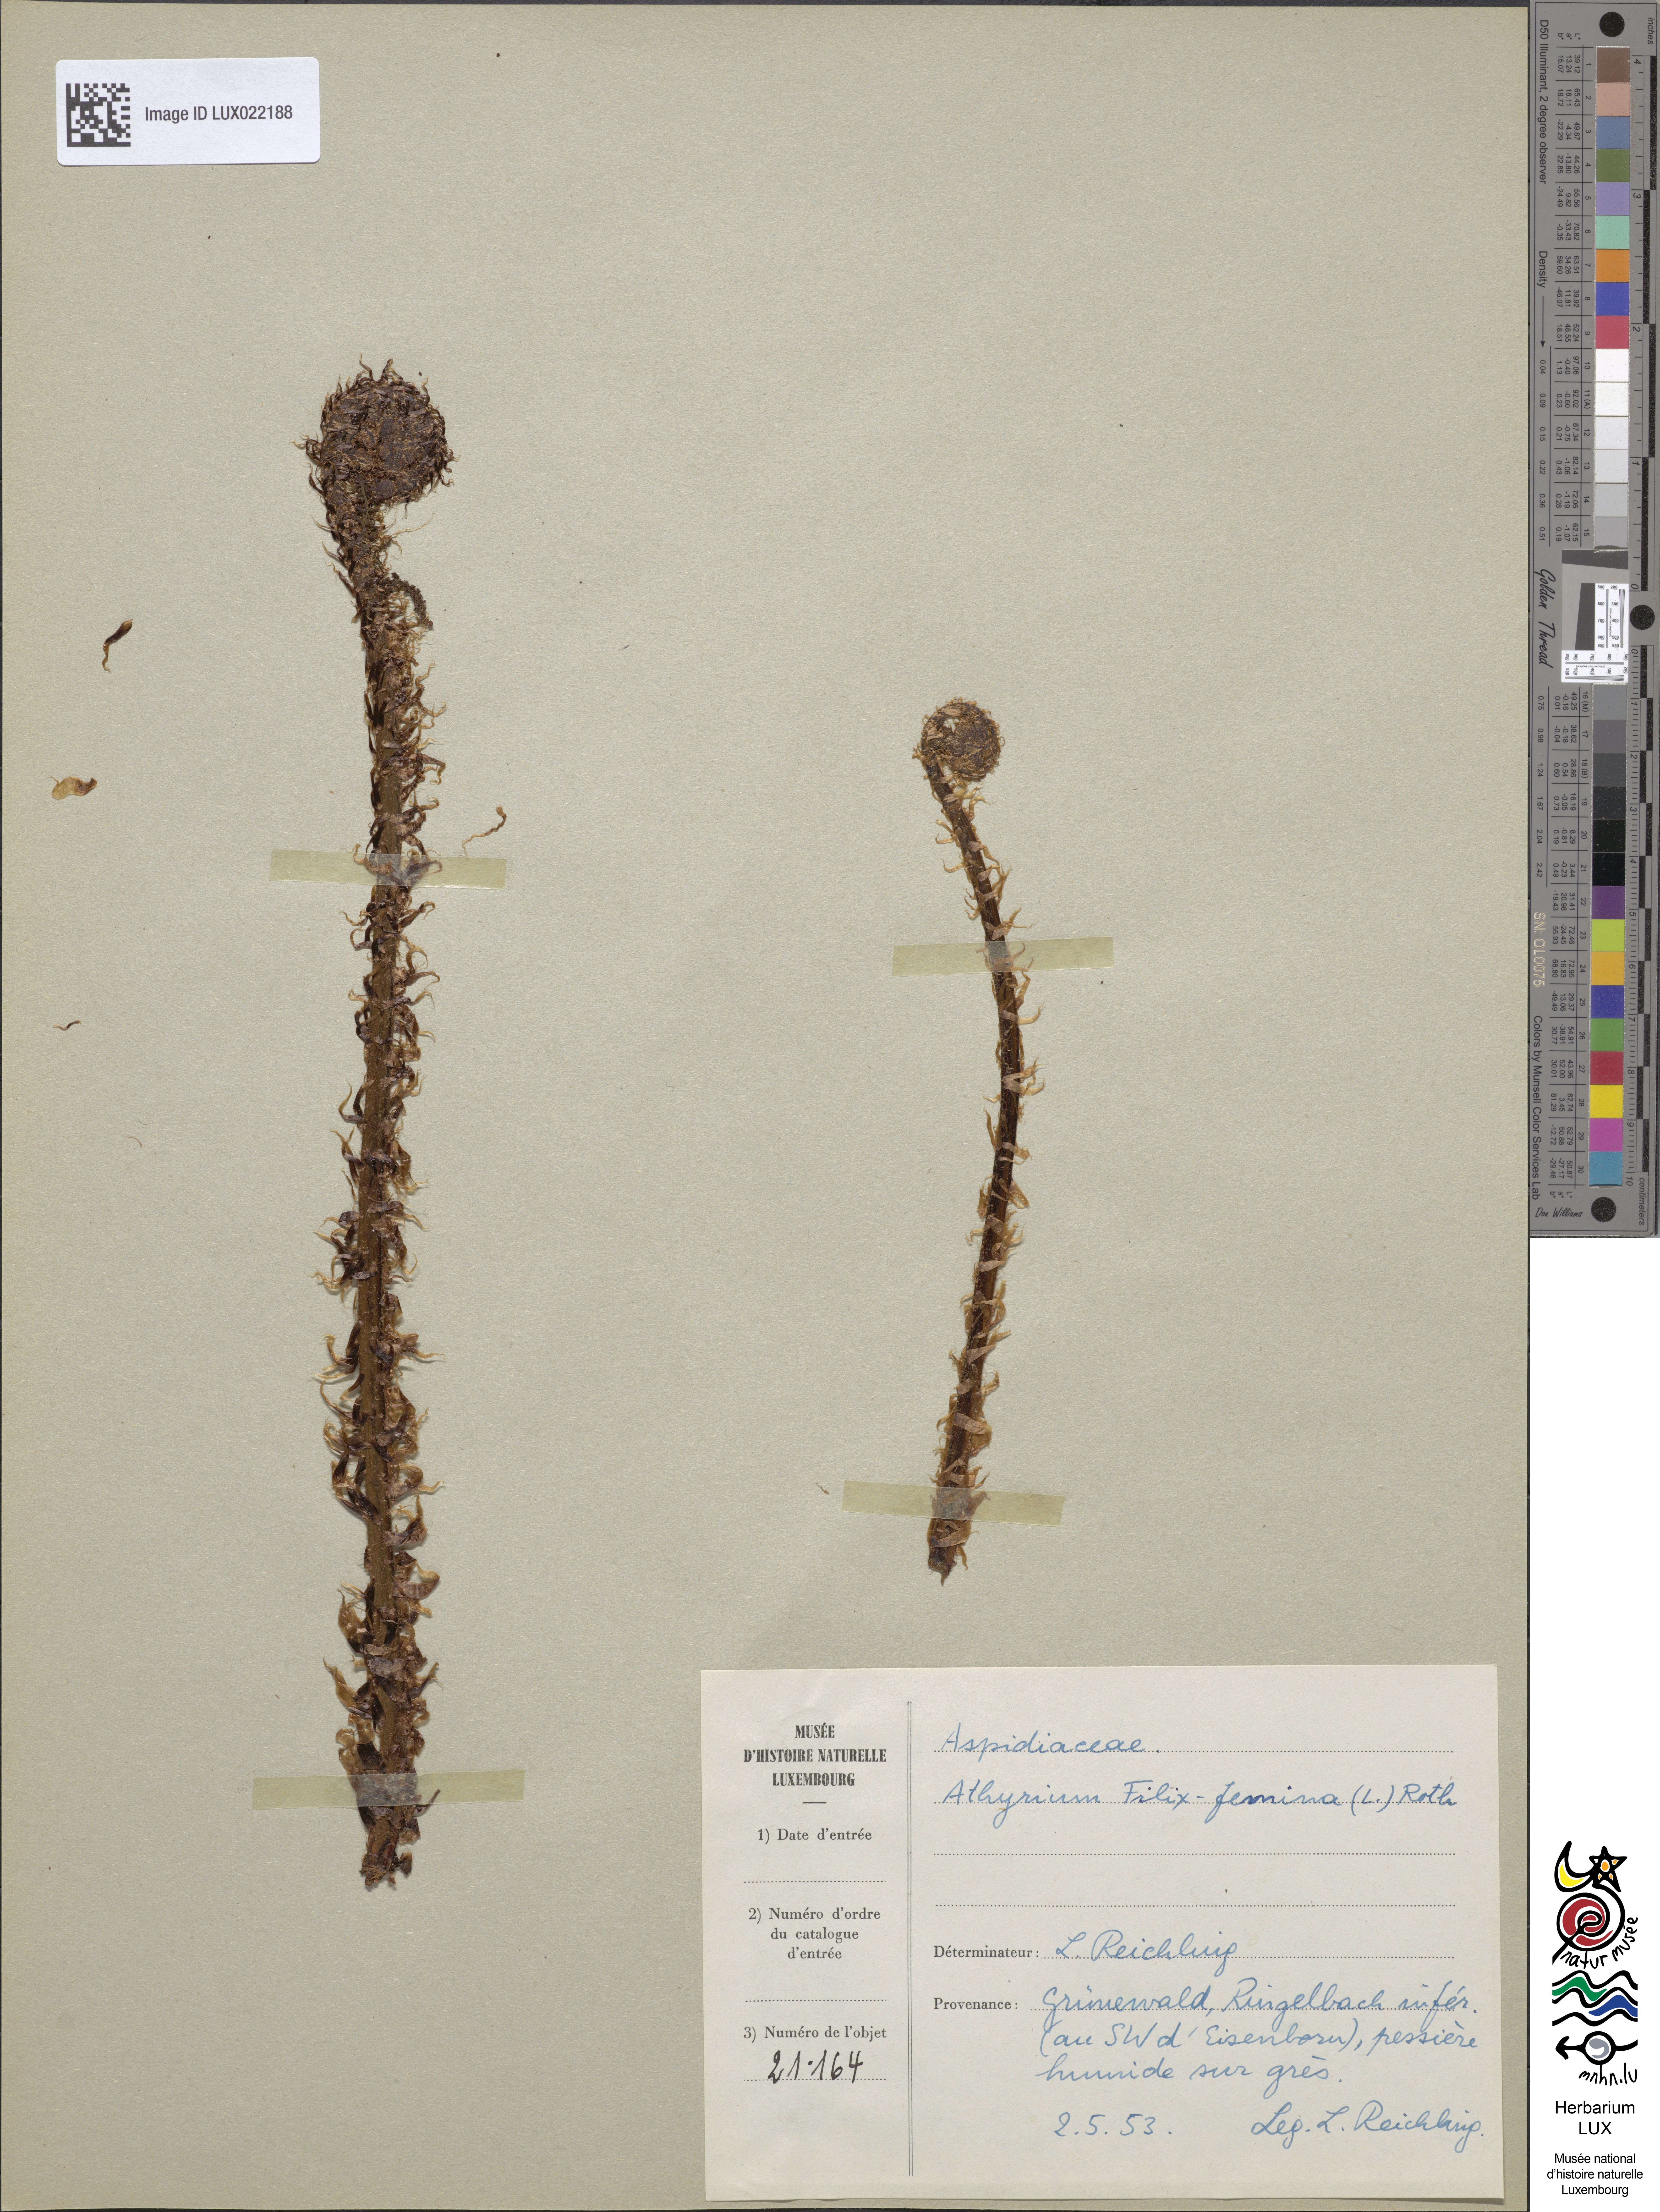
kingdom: Plantae
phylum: Tracheophyta
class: Polypodiopsida
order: Polypodiales
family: Athyriaceae
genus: Athyrium
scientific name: Athyrium filix-femina
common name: Lady fern
